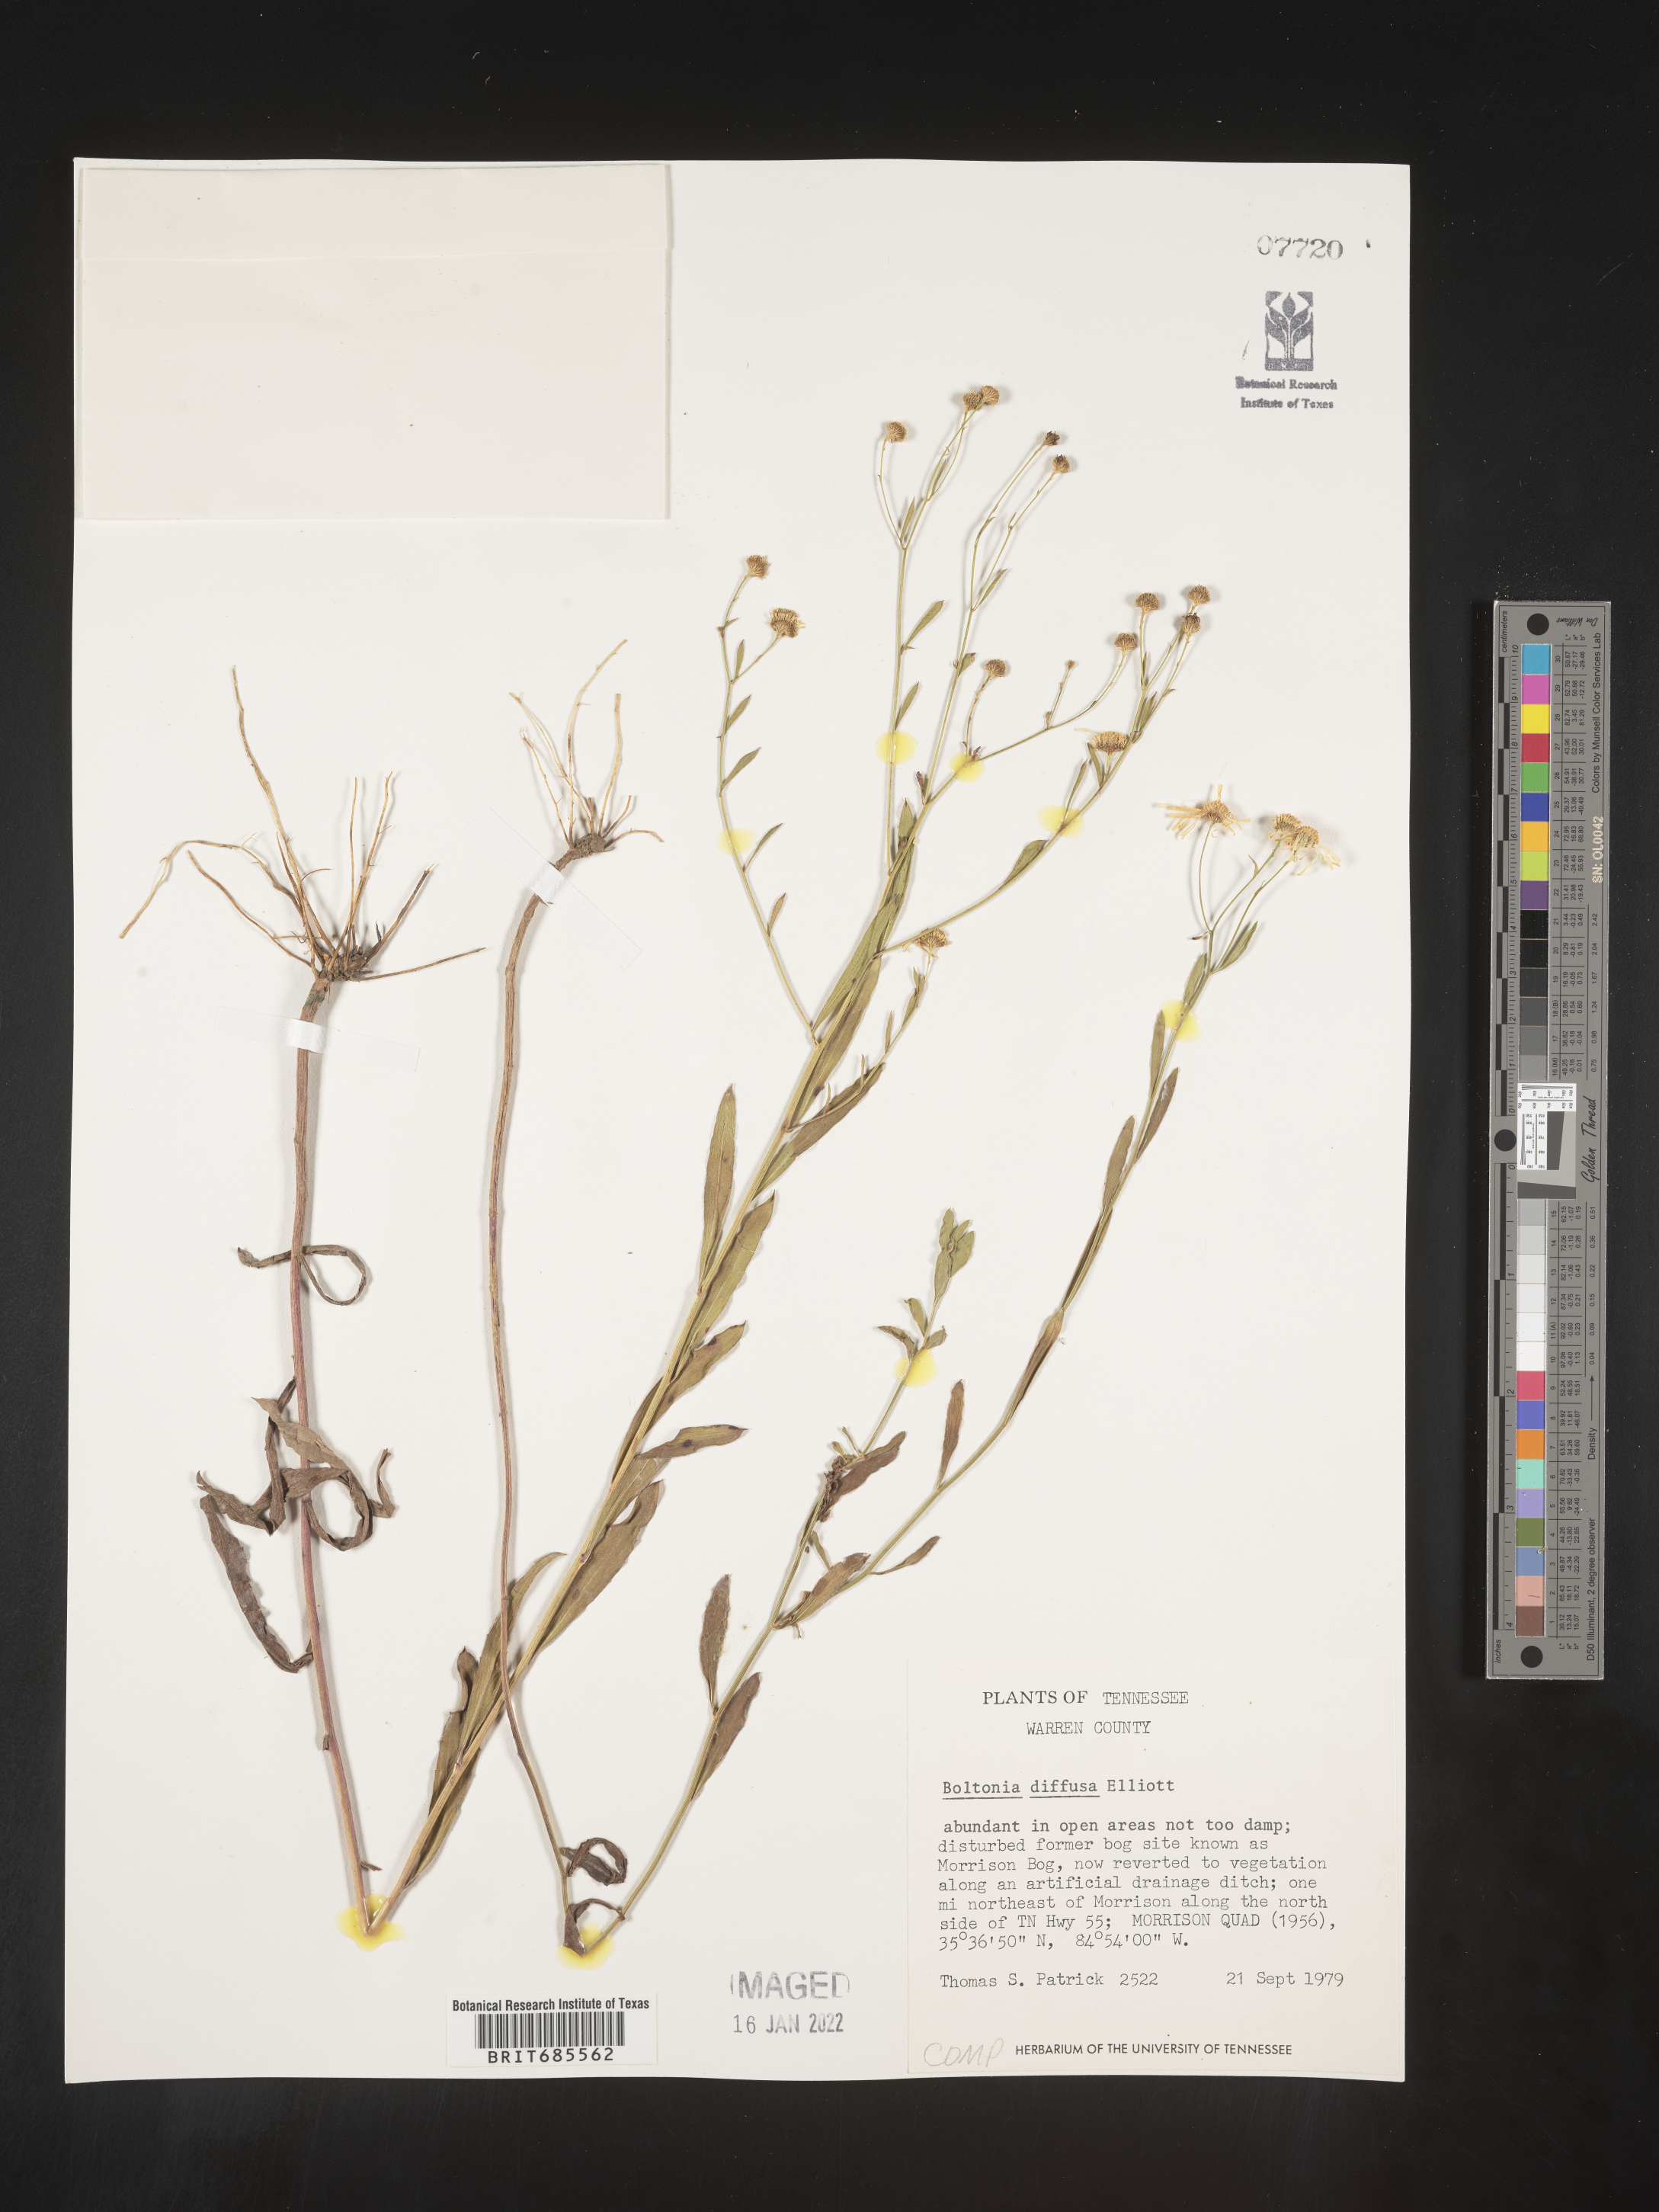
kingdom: Plantae
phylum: Tracheophyta
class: Magnoliopsida
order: Asterales
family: Asteraceae
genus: Boltonia
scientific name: Boltonia diffusa
